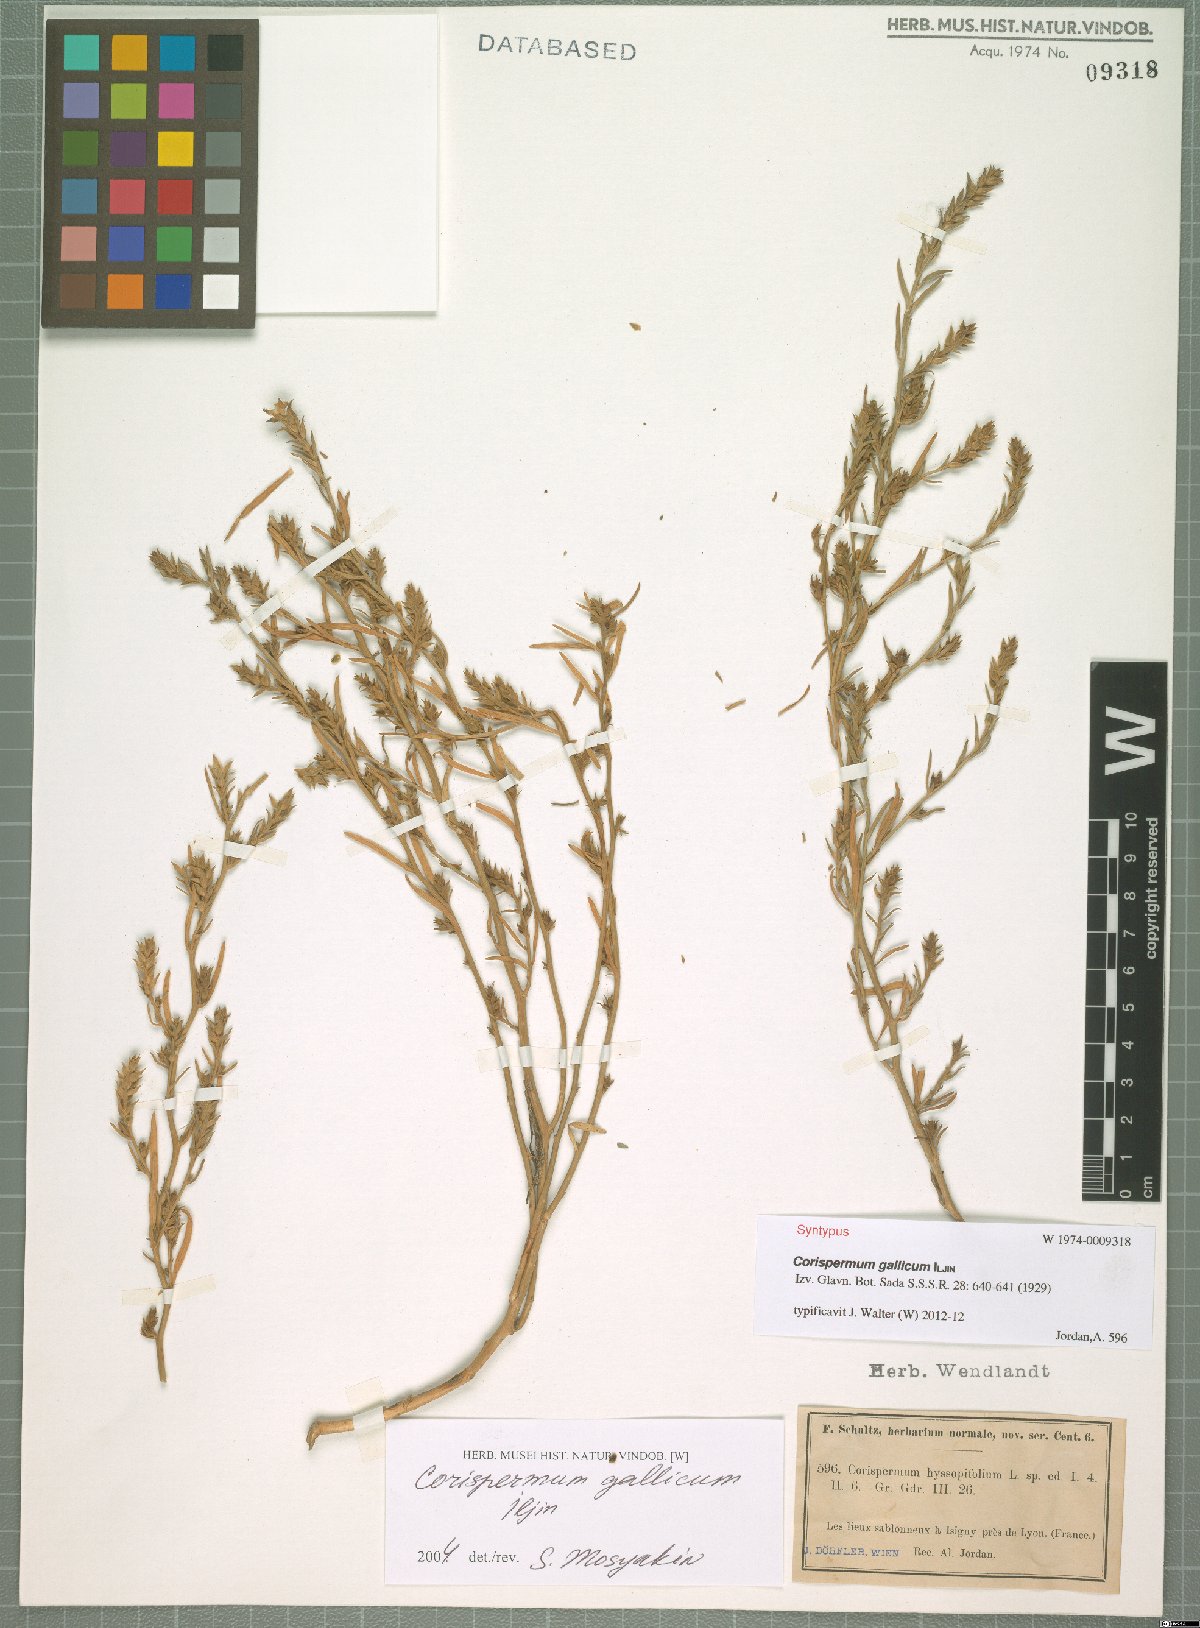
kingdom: Plantae
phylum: Tracheophyta
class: Magnoliopsida
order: Caryophyllales
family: Amaranthaceae
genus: Corispermum
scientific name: Corispermum gallicum
